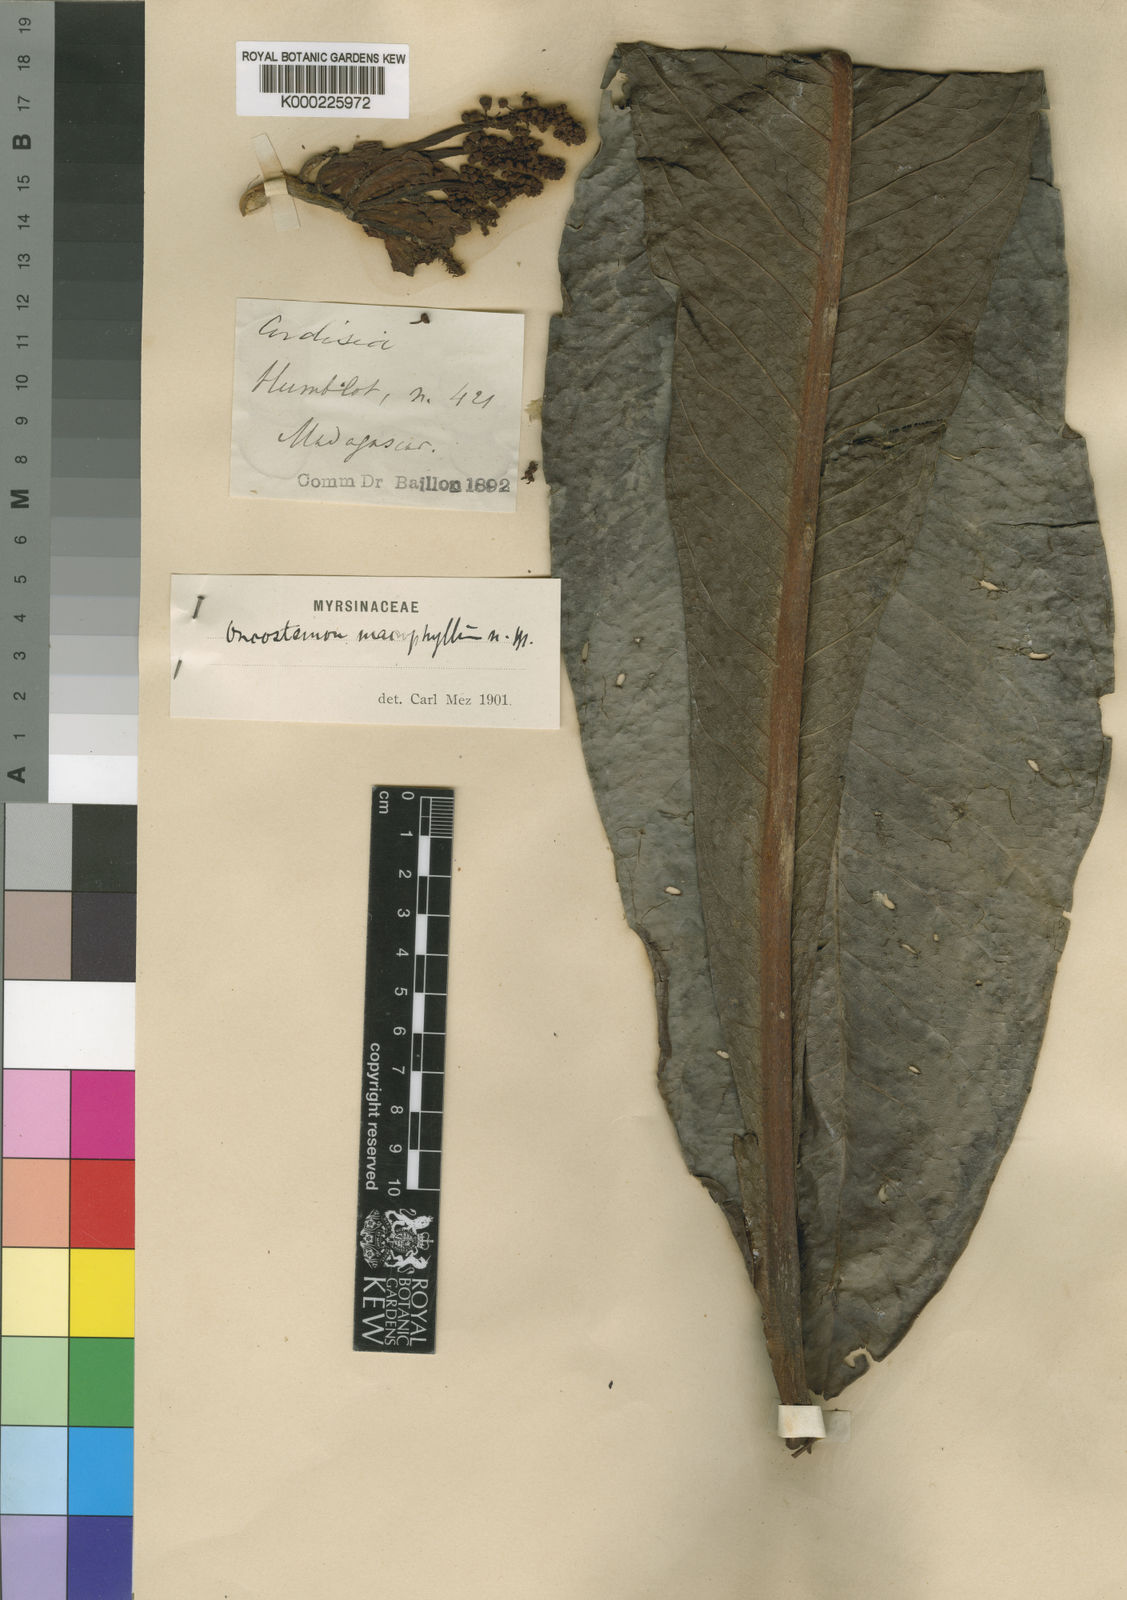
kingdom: Plantae
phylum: Tracheophyta
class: Magnoliopsida
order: Ericales
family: Primulaceae
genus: Oncostemum
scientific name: Oncostemum macrophyllum
